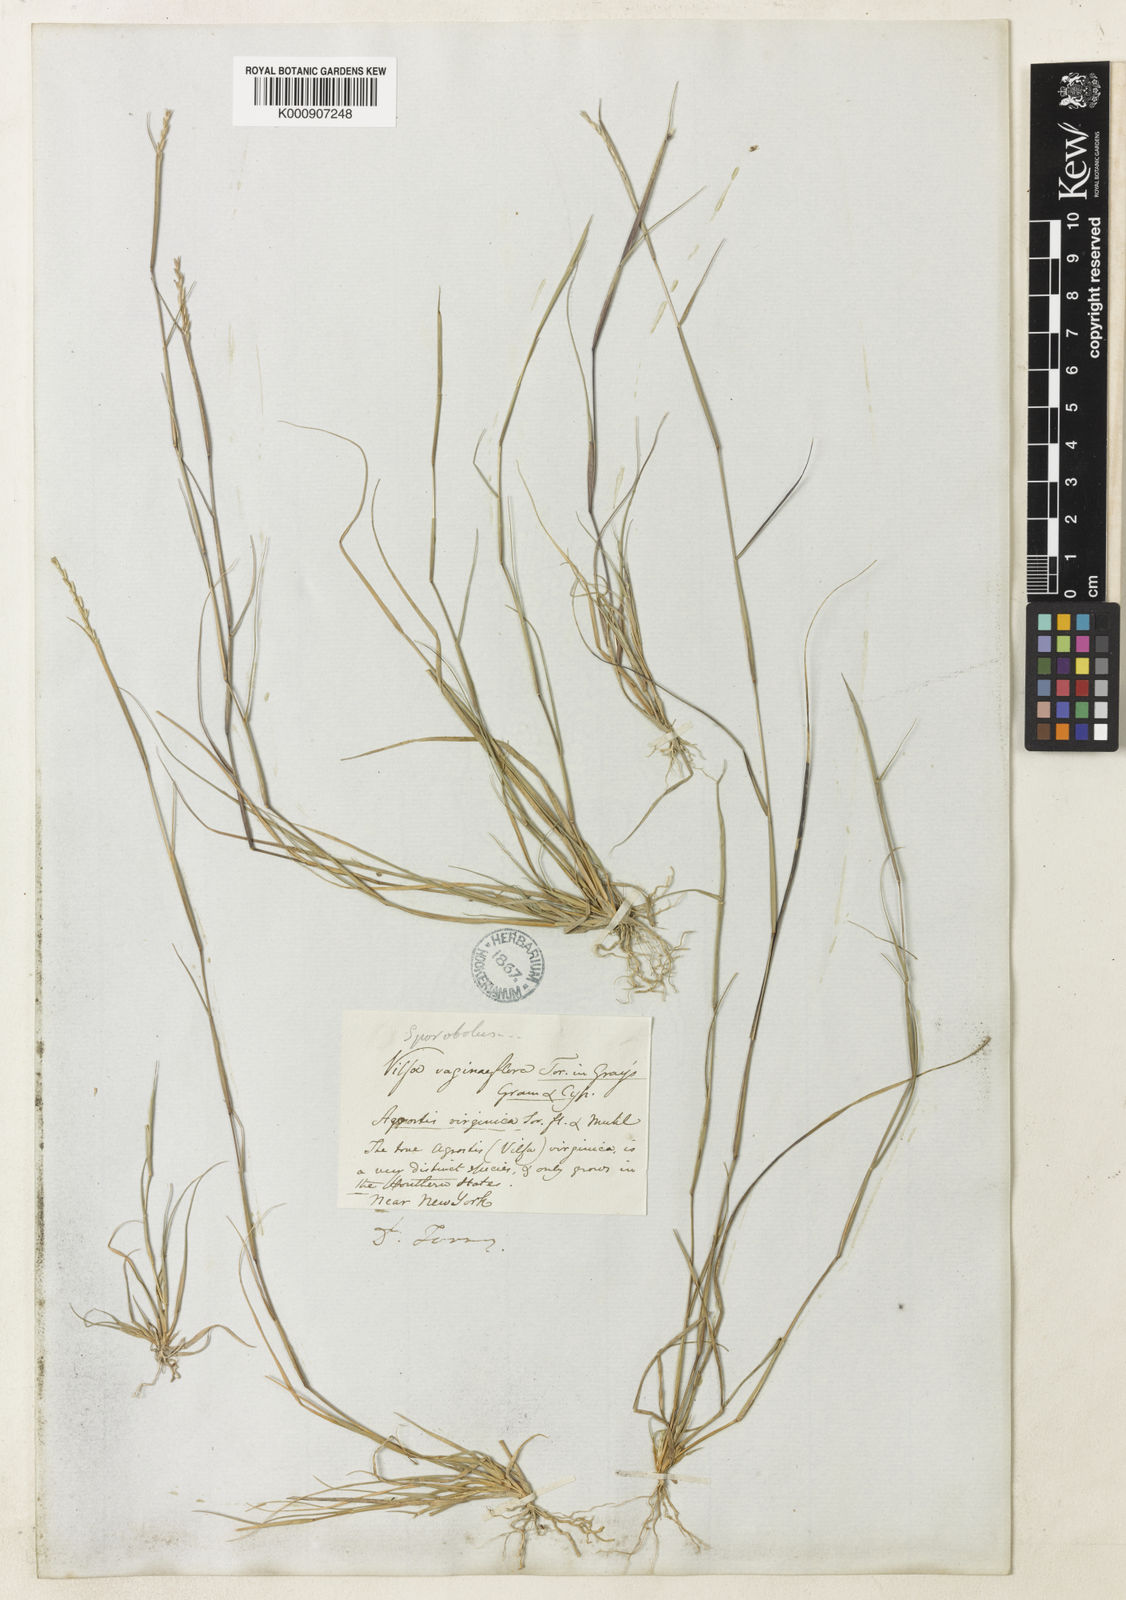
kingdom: Plantae
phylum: Tracheophyta
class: Liliopsida
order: Poales
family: Poaceae
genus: Sporobolus
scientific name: Sporobolus vaginiflorus
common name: Poverty dropseed
